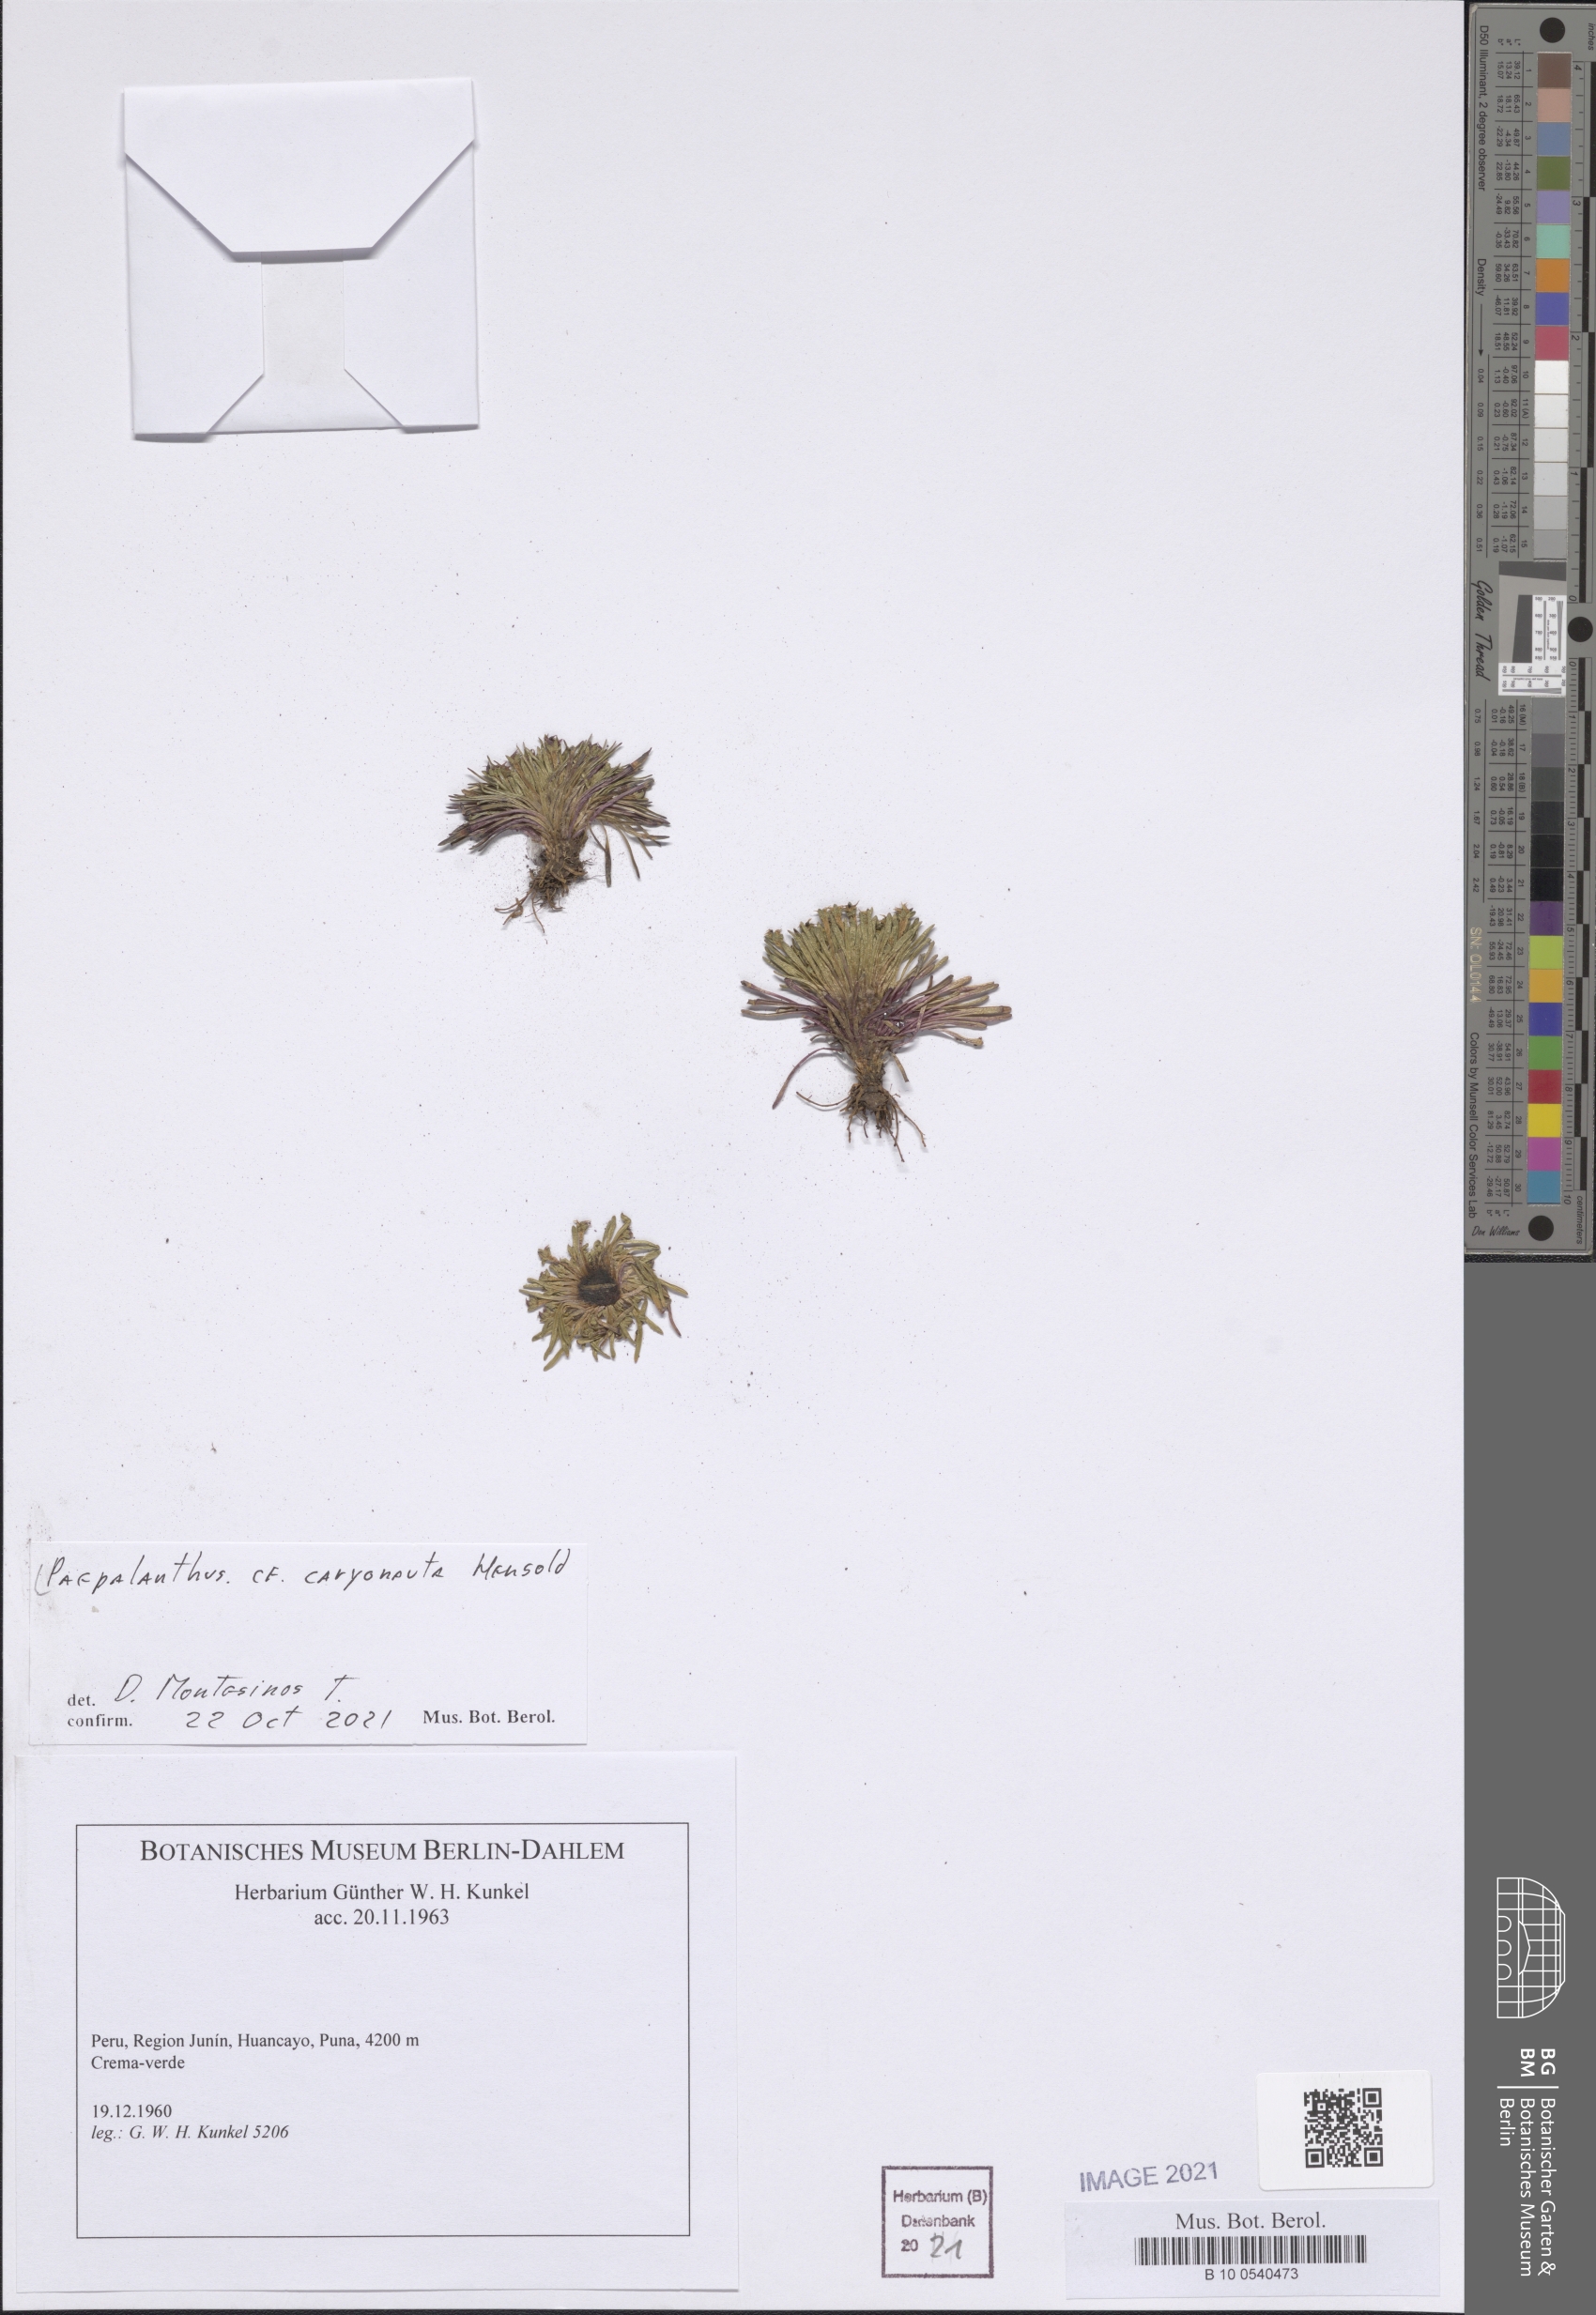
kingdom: Plantae
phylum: Tracheophyta
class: Liliopsida
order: Poales
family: Eriocaulaceae
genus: Paepalanthus
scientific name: Paepalanthus caryonauta
